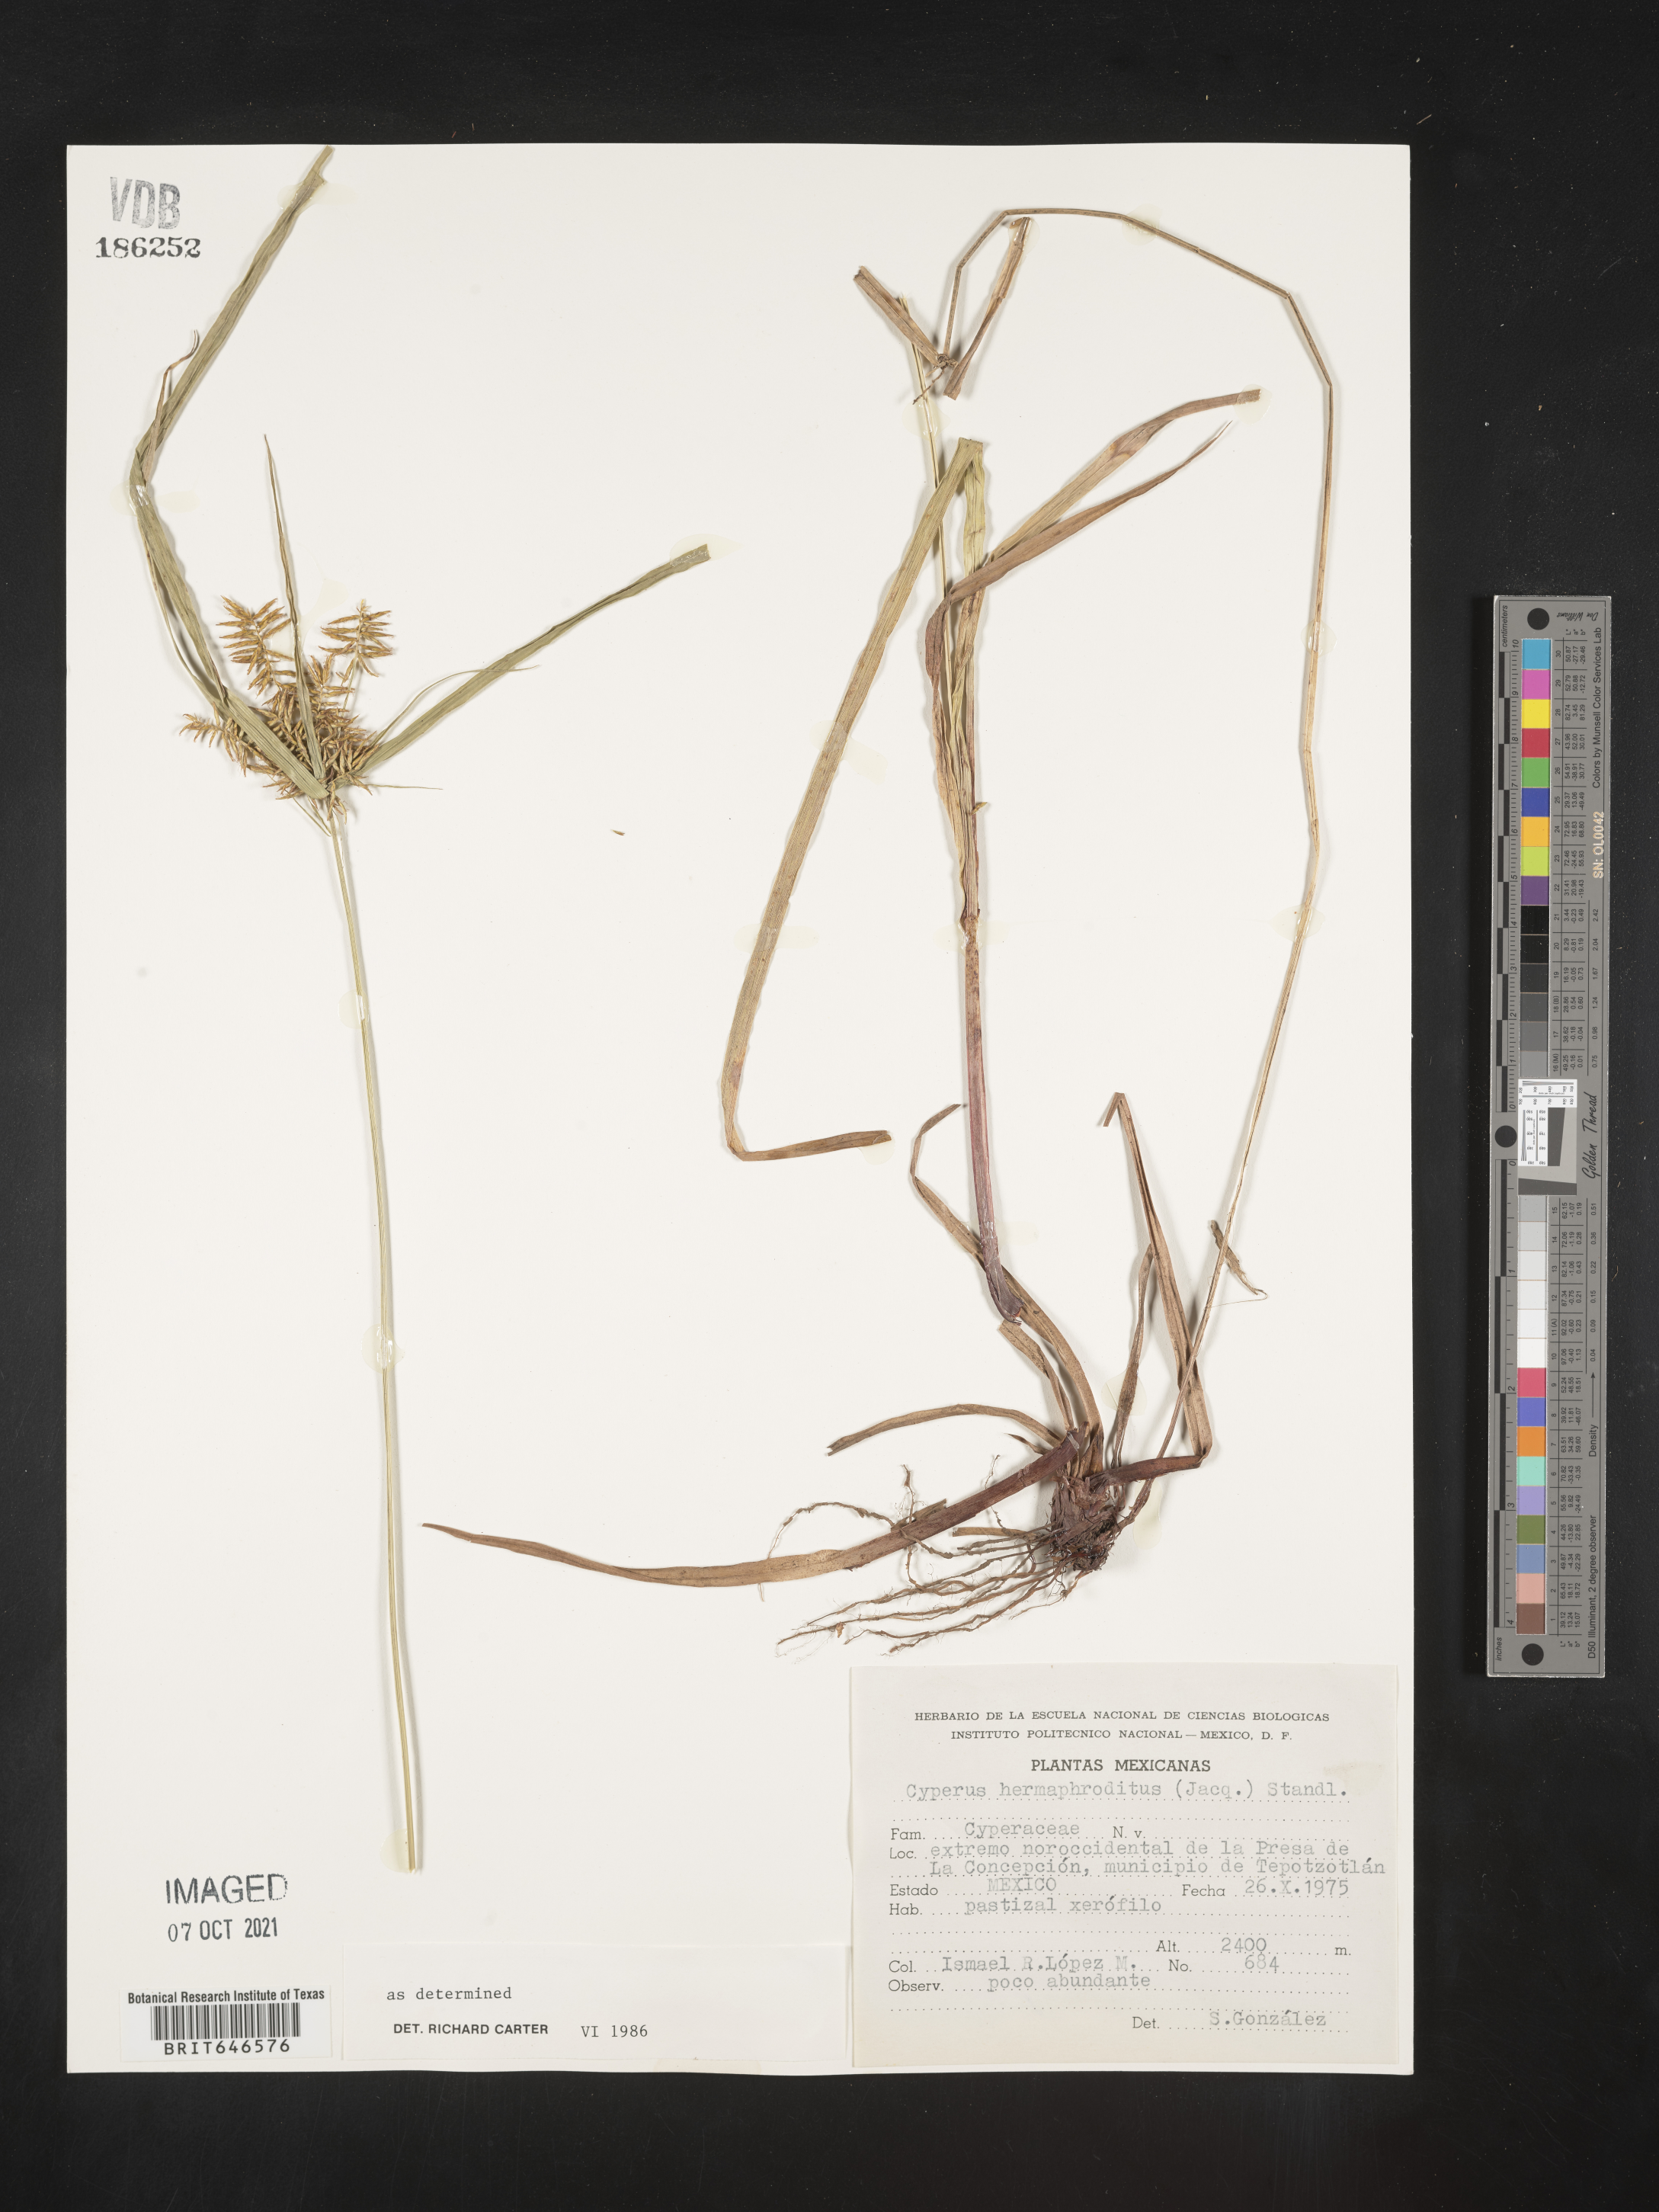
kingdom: Plantae
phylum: Tracheophyta
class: Liliopsida
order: Poales
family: Cyperaceae
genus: Cyperus
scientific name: Cyperus
